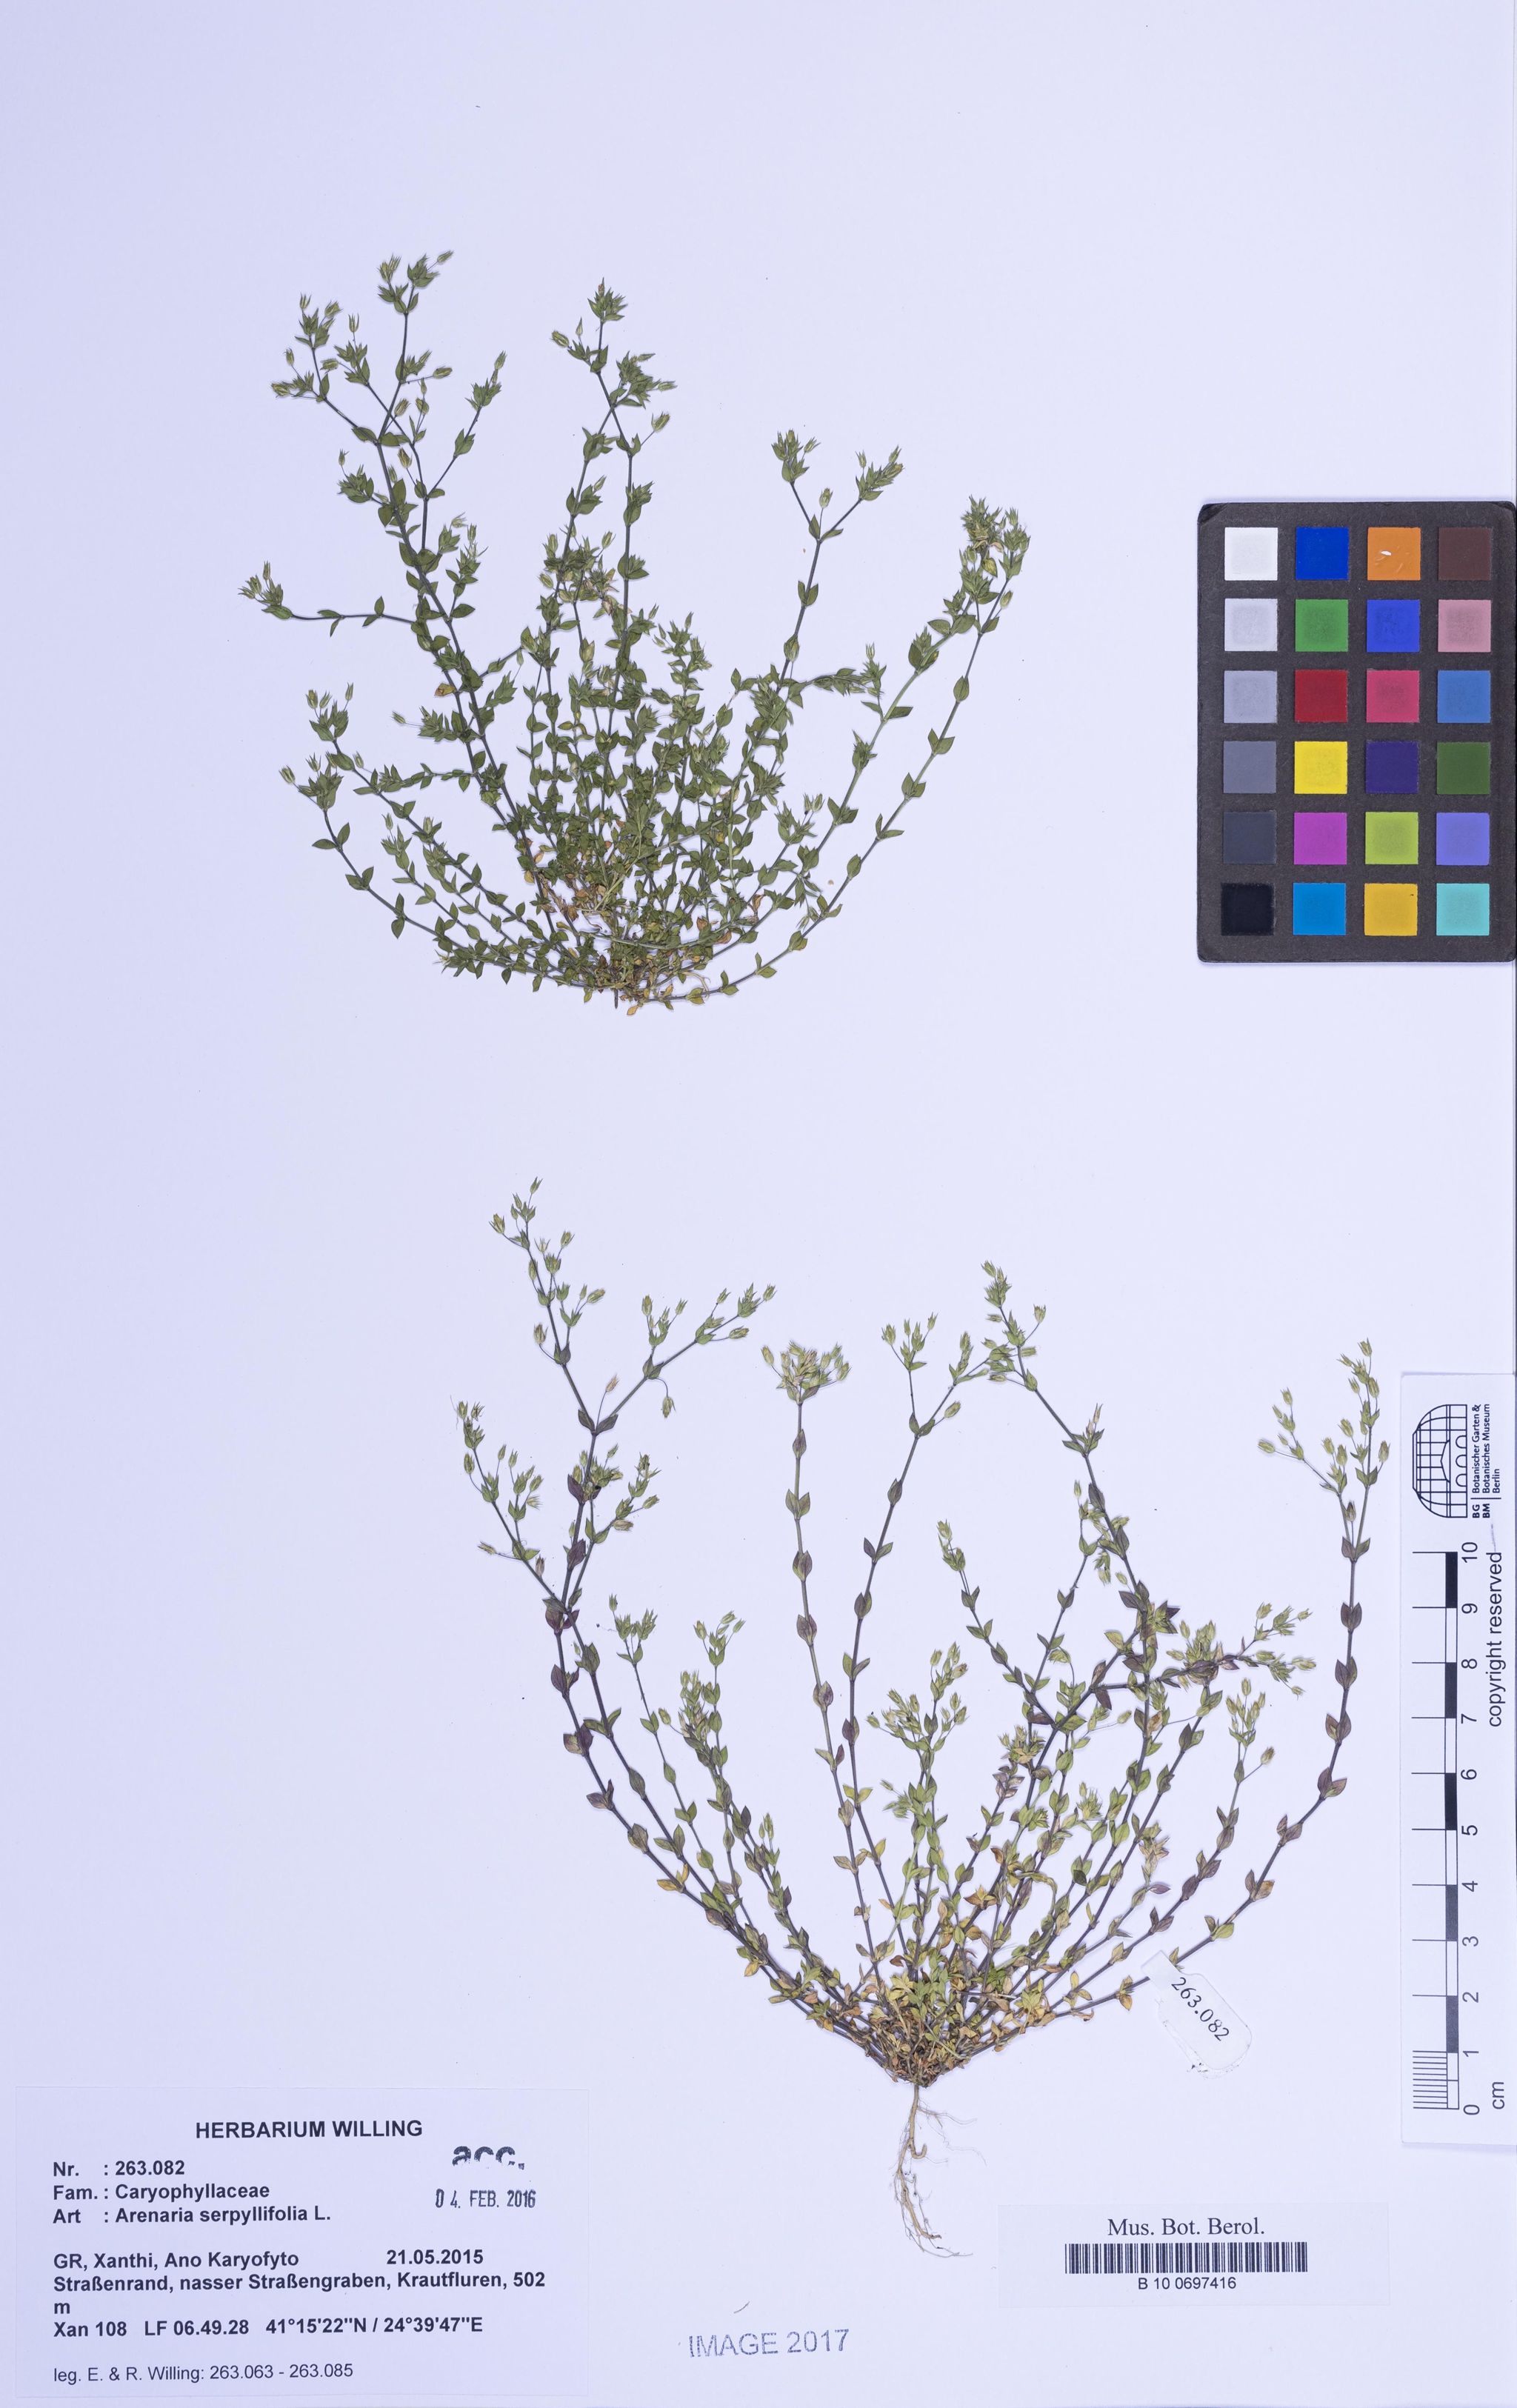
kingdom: Plantae
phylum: Tracheophyta
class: Magnoliopsida
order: Caryophyllales
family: Caryophyllaceae
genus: Arenaria
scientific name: Arenaria serpyllifolia
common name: Thyme-leaved sandwort
